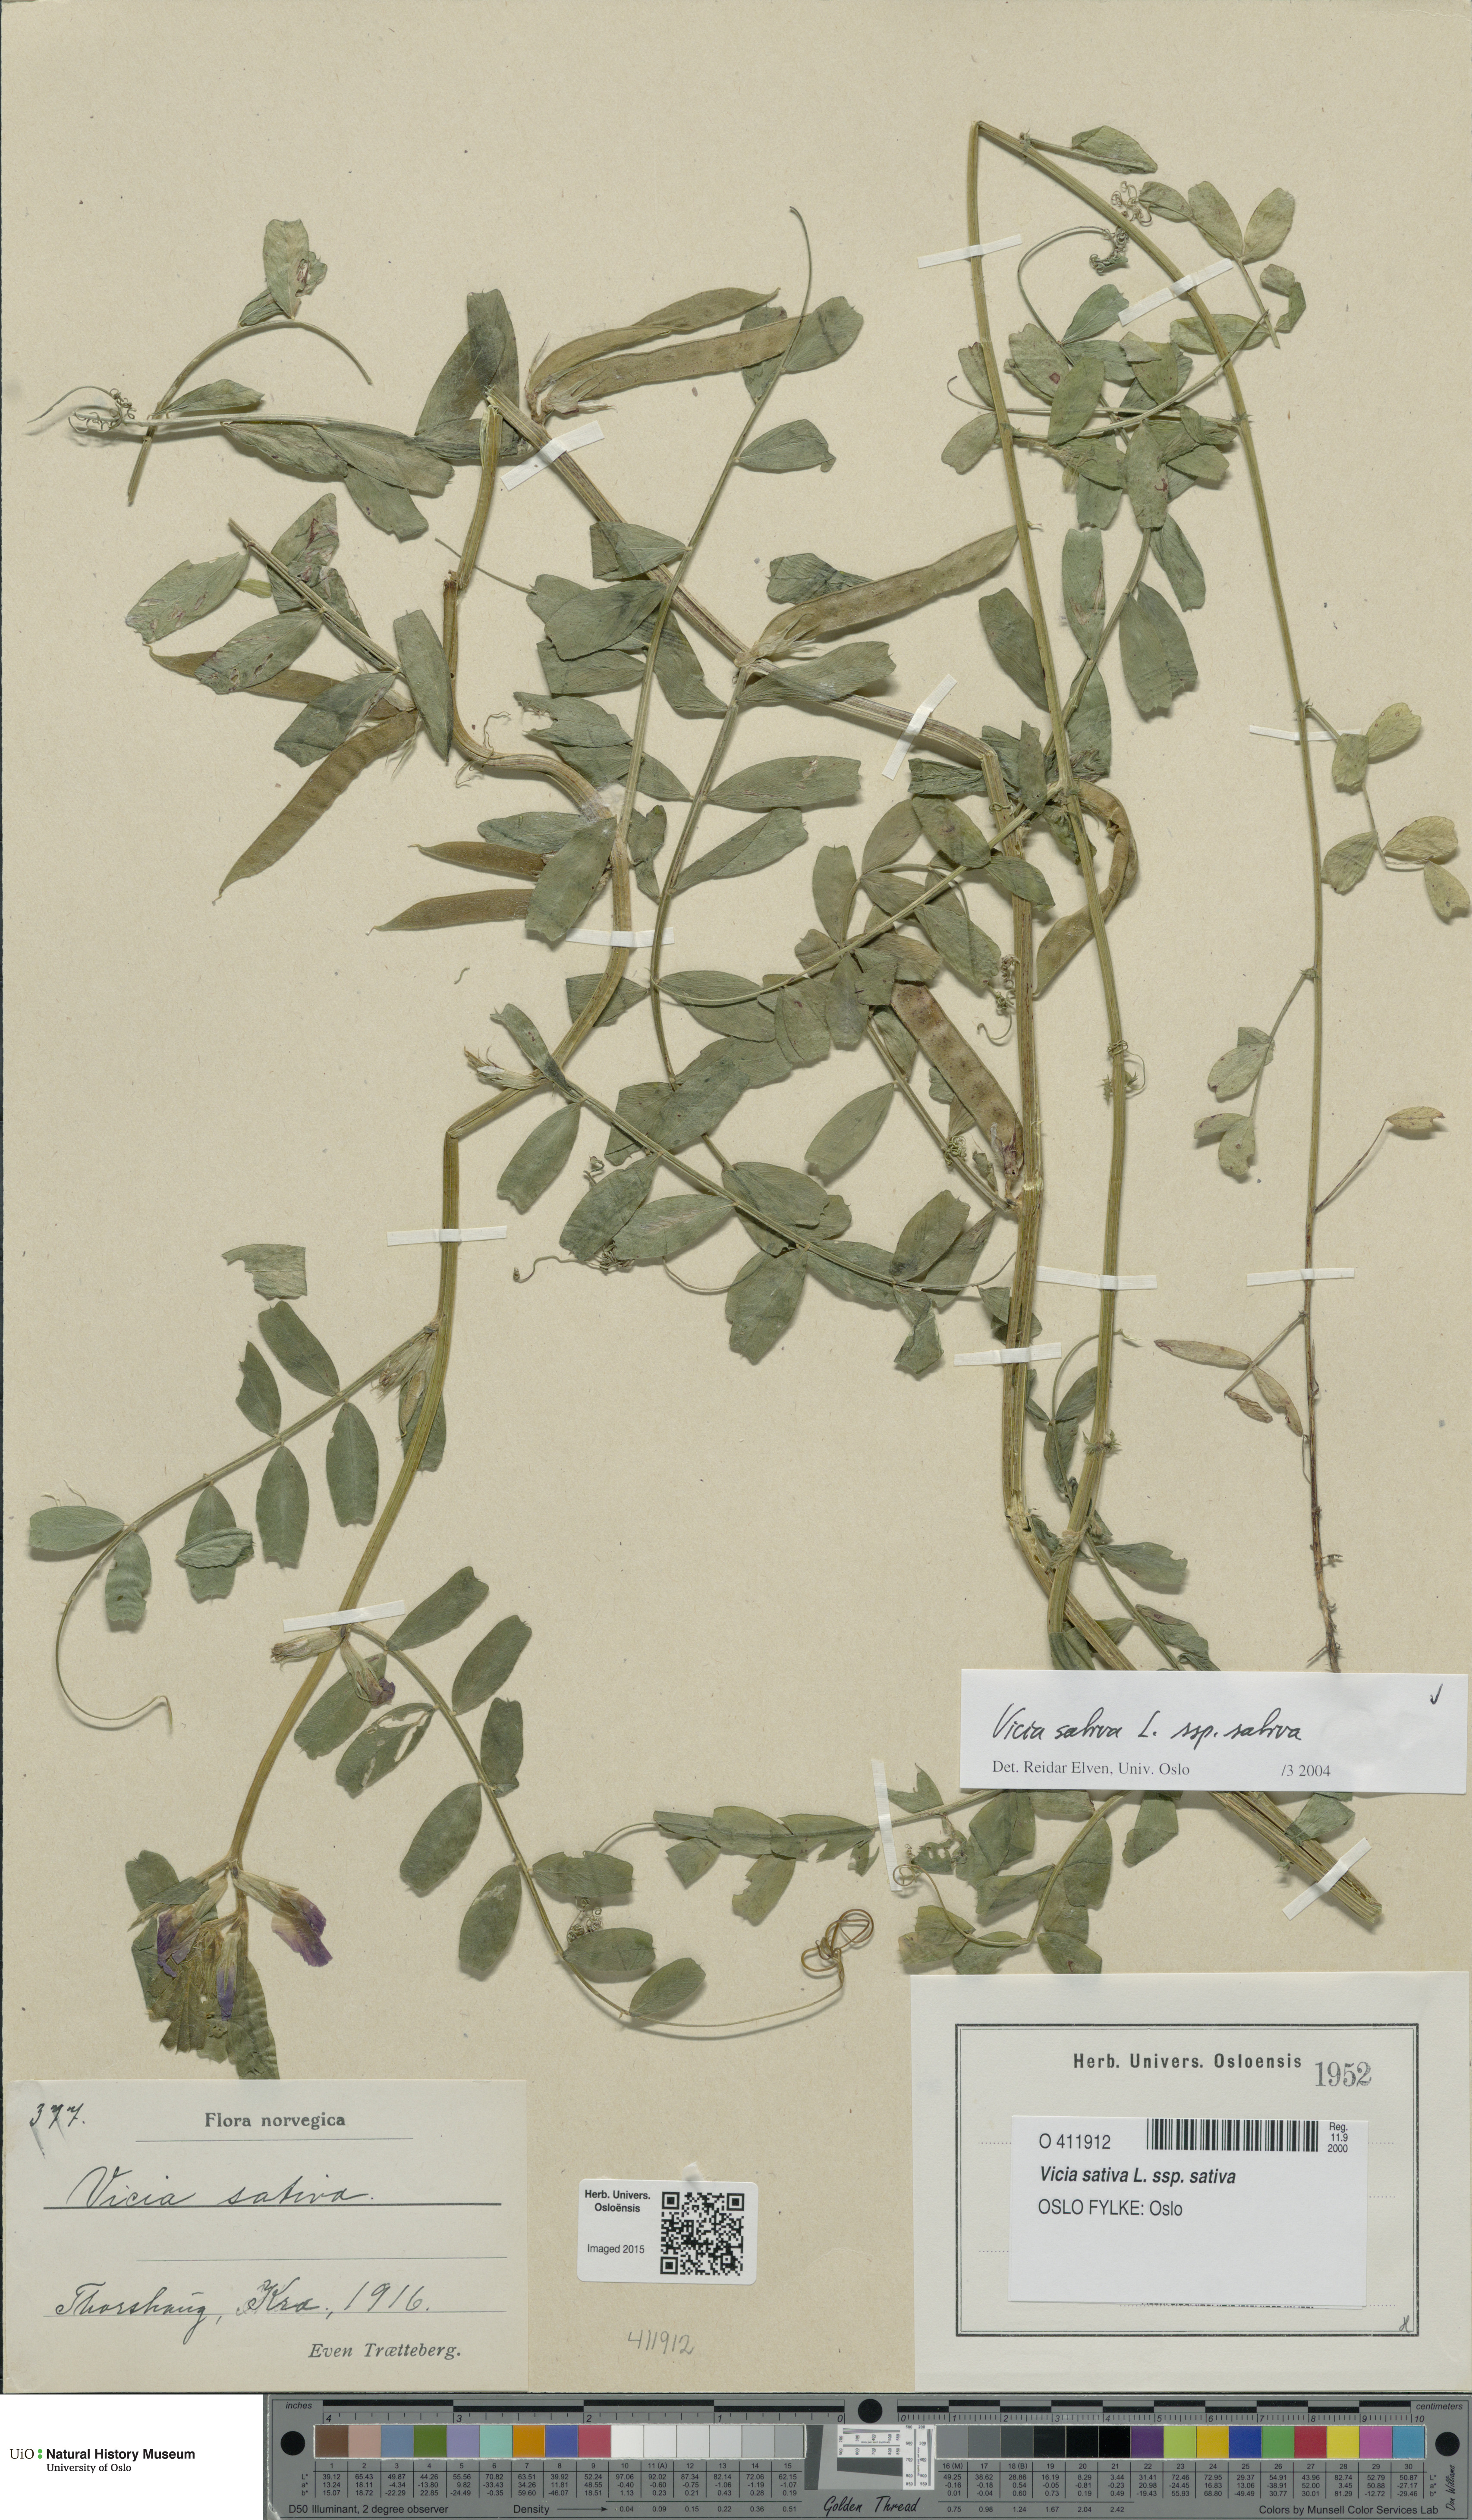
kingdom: Plantae
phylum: Tracheophyta
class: Magnoliopsida
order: Fabales
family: Fabaceae
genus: Vicia
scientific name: Vicia sativa
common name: Garden vetch
